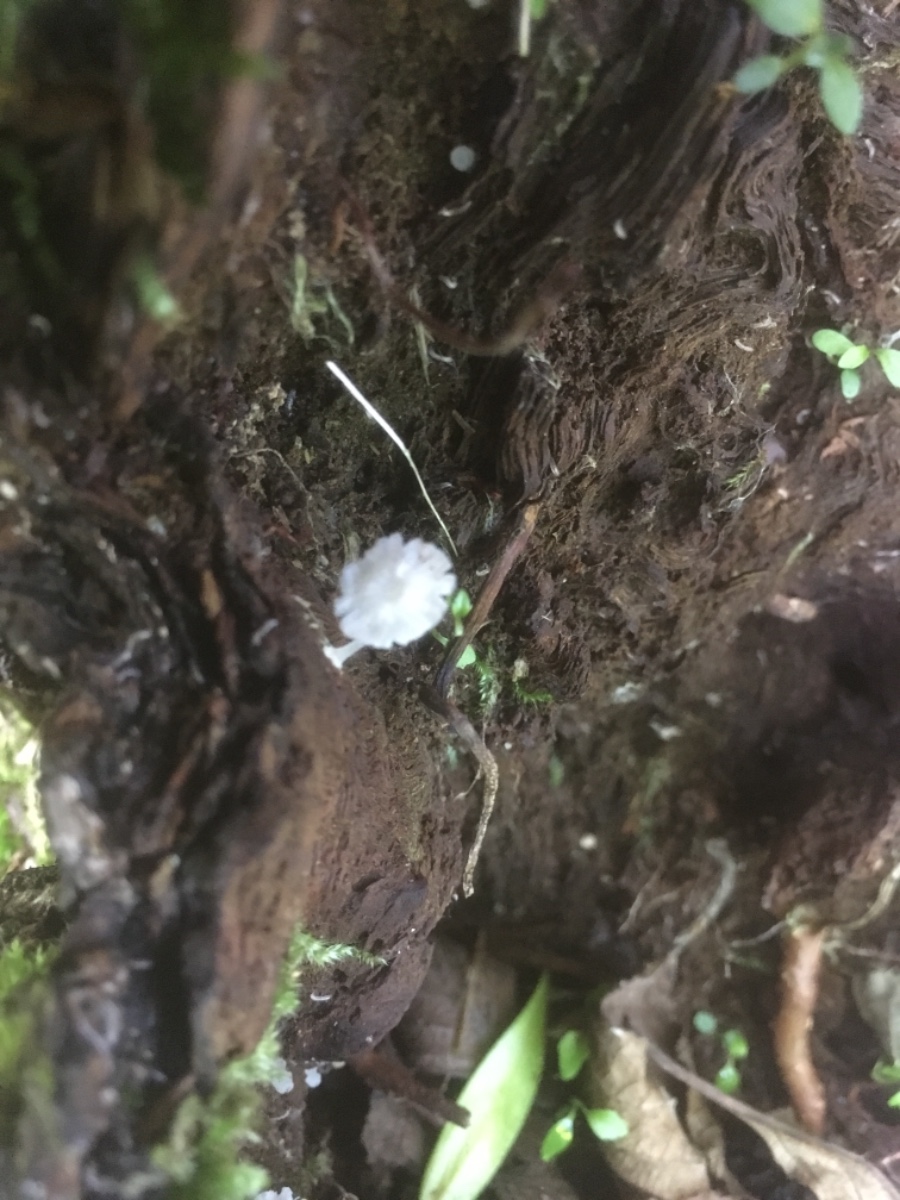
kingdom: Fungi
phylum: Basidiomycota
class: Agaricomycetes
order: Agaricales
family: Tricholomataceae
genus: Delicatula
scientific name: Delicatula integrella
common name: slørhuesvamp
